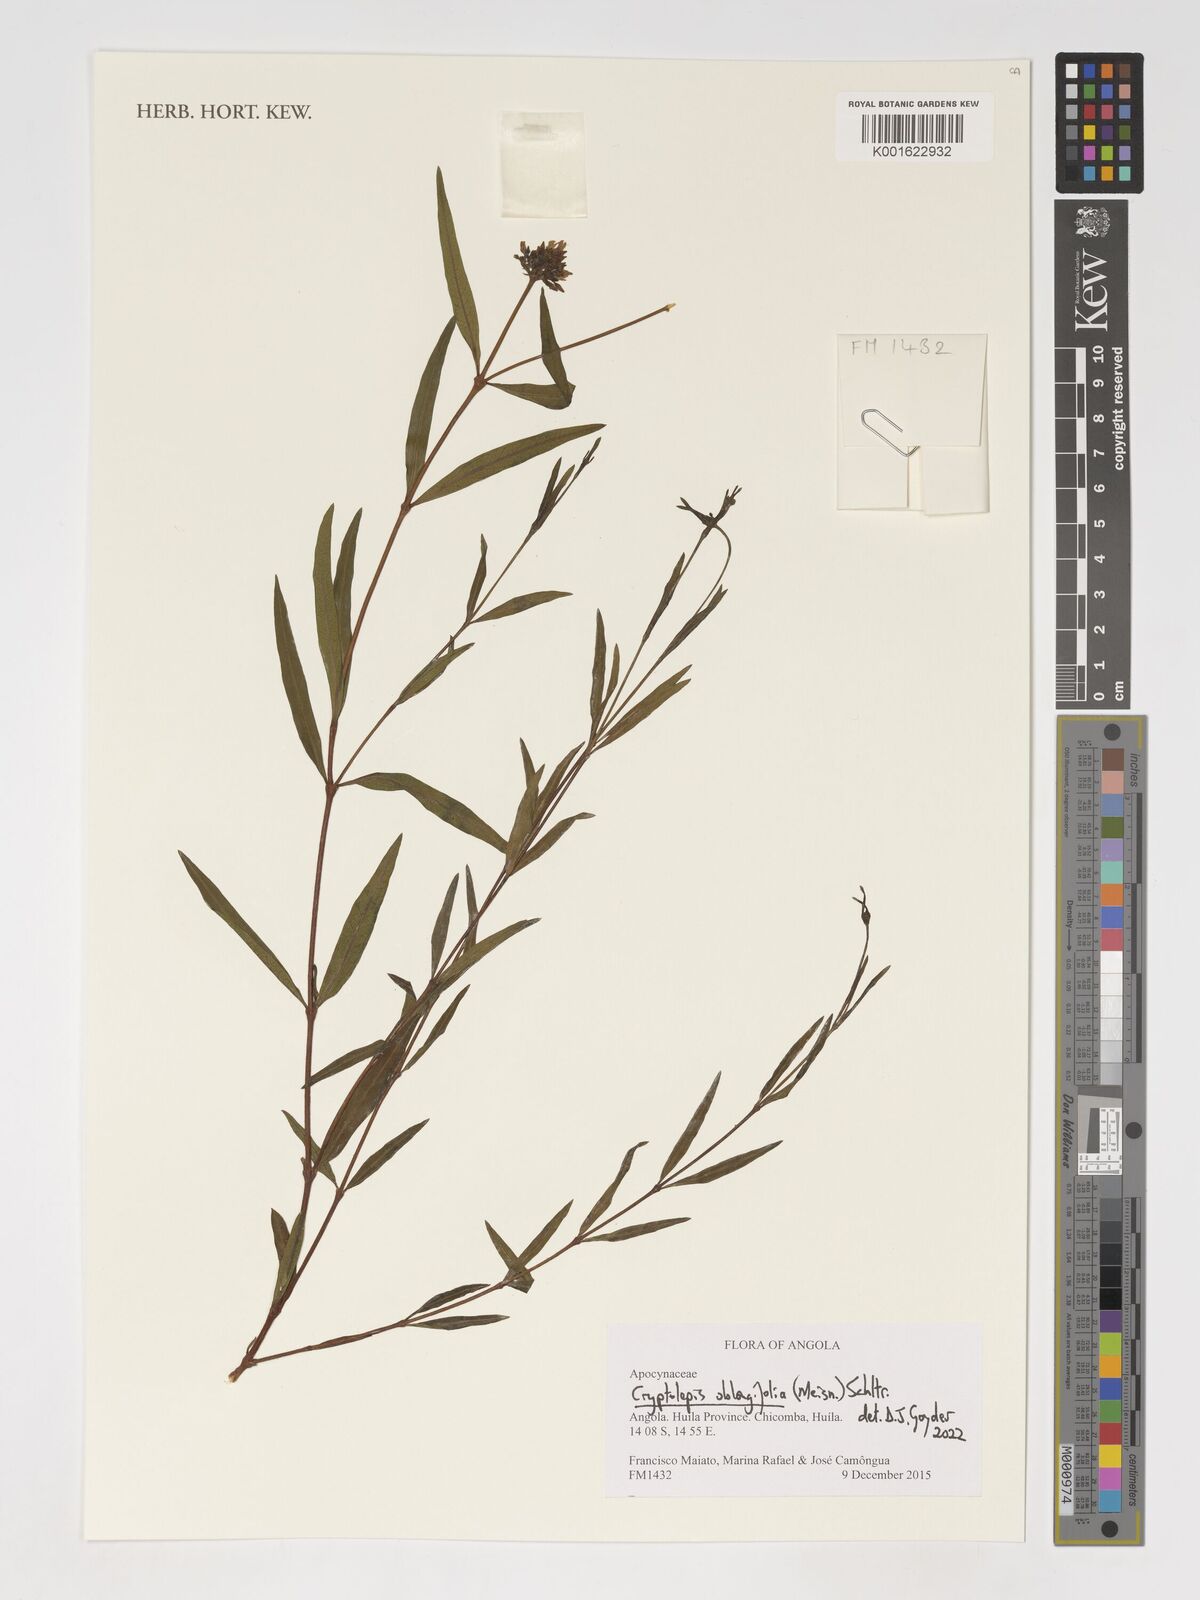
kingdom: Plantae
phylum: Tracheophyta
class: Magnoliopsida
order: Gentianales
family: Apocynaceae
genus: Cryptolepis
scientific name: Cryptolepis oblongifolia
